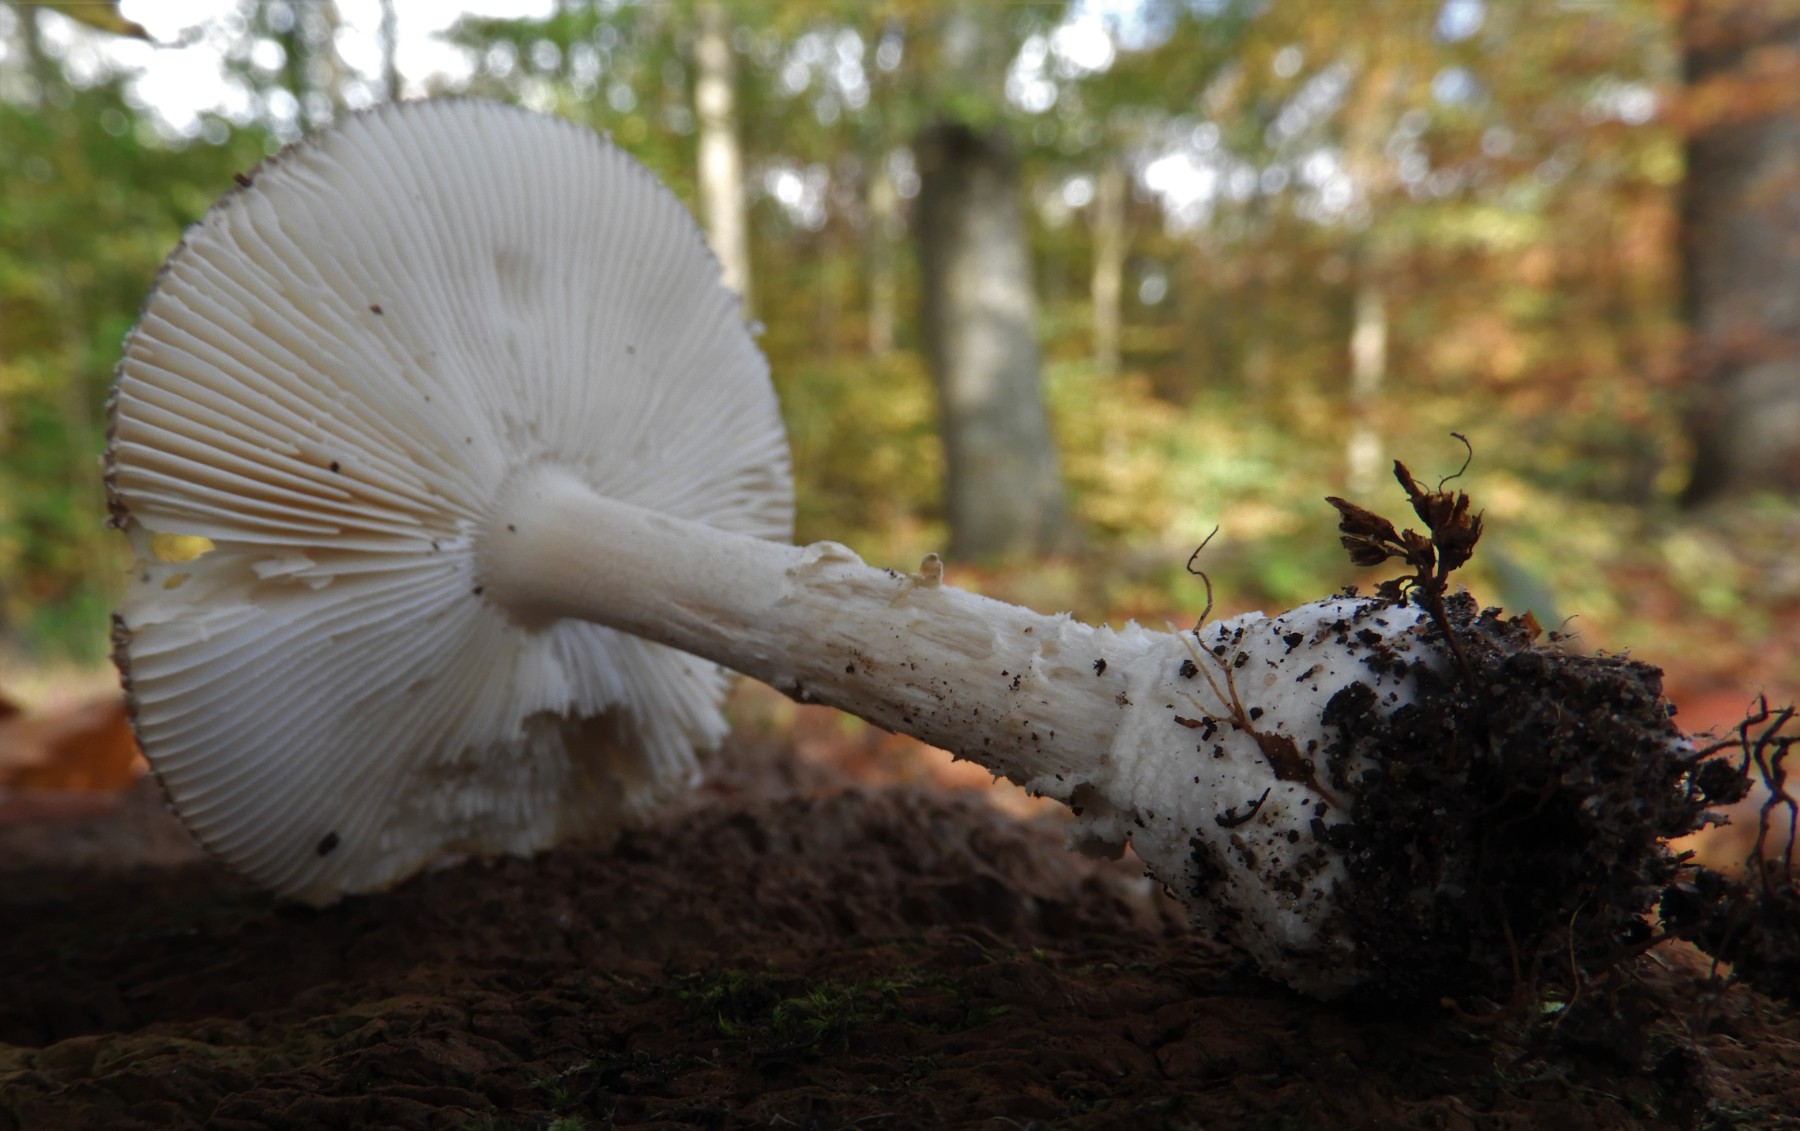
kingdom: Fungi
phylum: Basidiomycota
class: Agaricomycetes
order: Agaricales
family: Amanitaceae
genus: Amanita
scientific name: Amanita pantherina
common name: panter-fluesvamp
